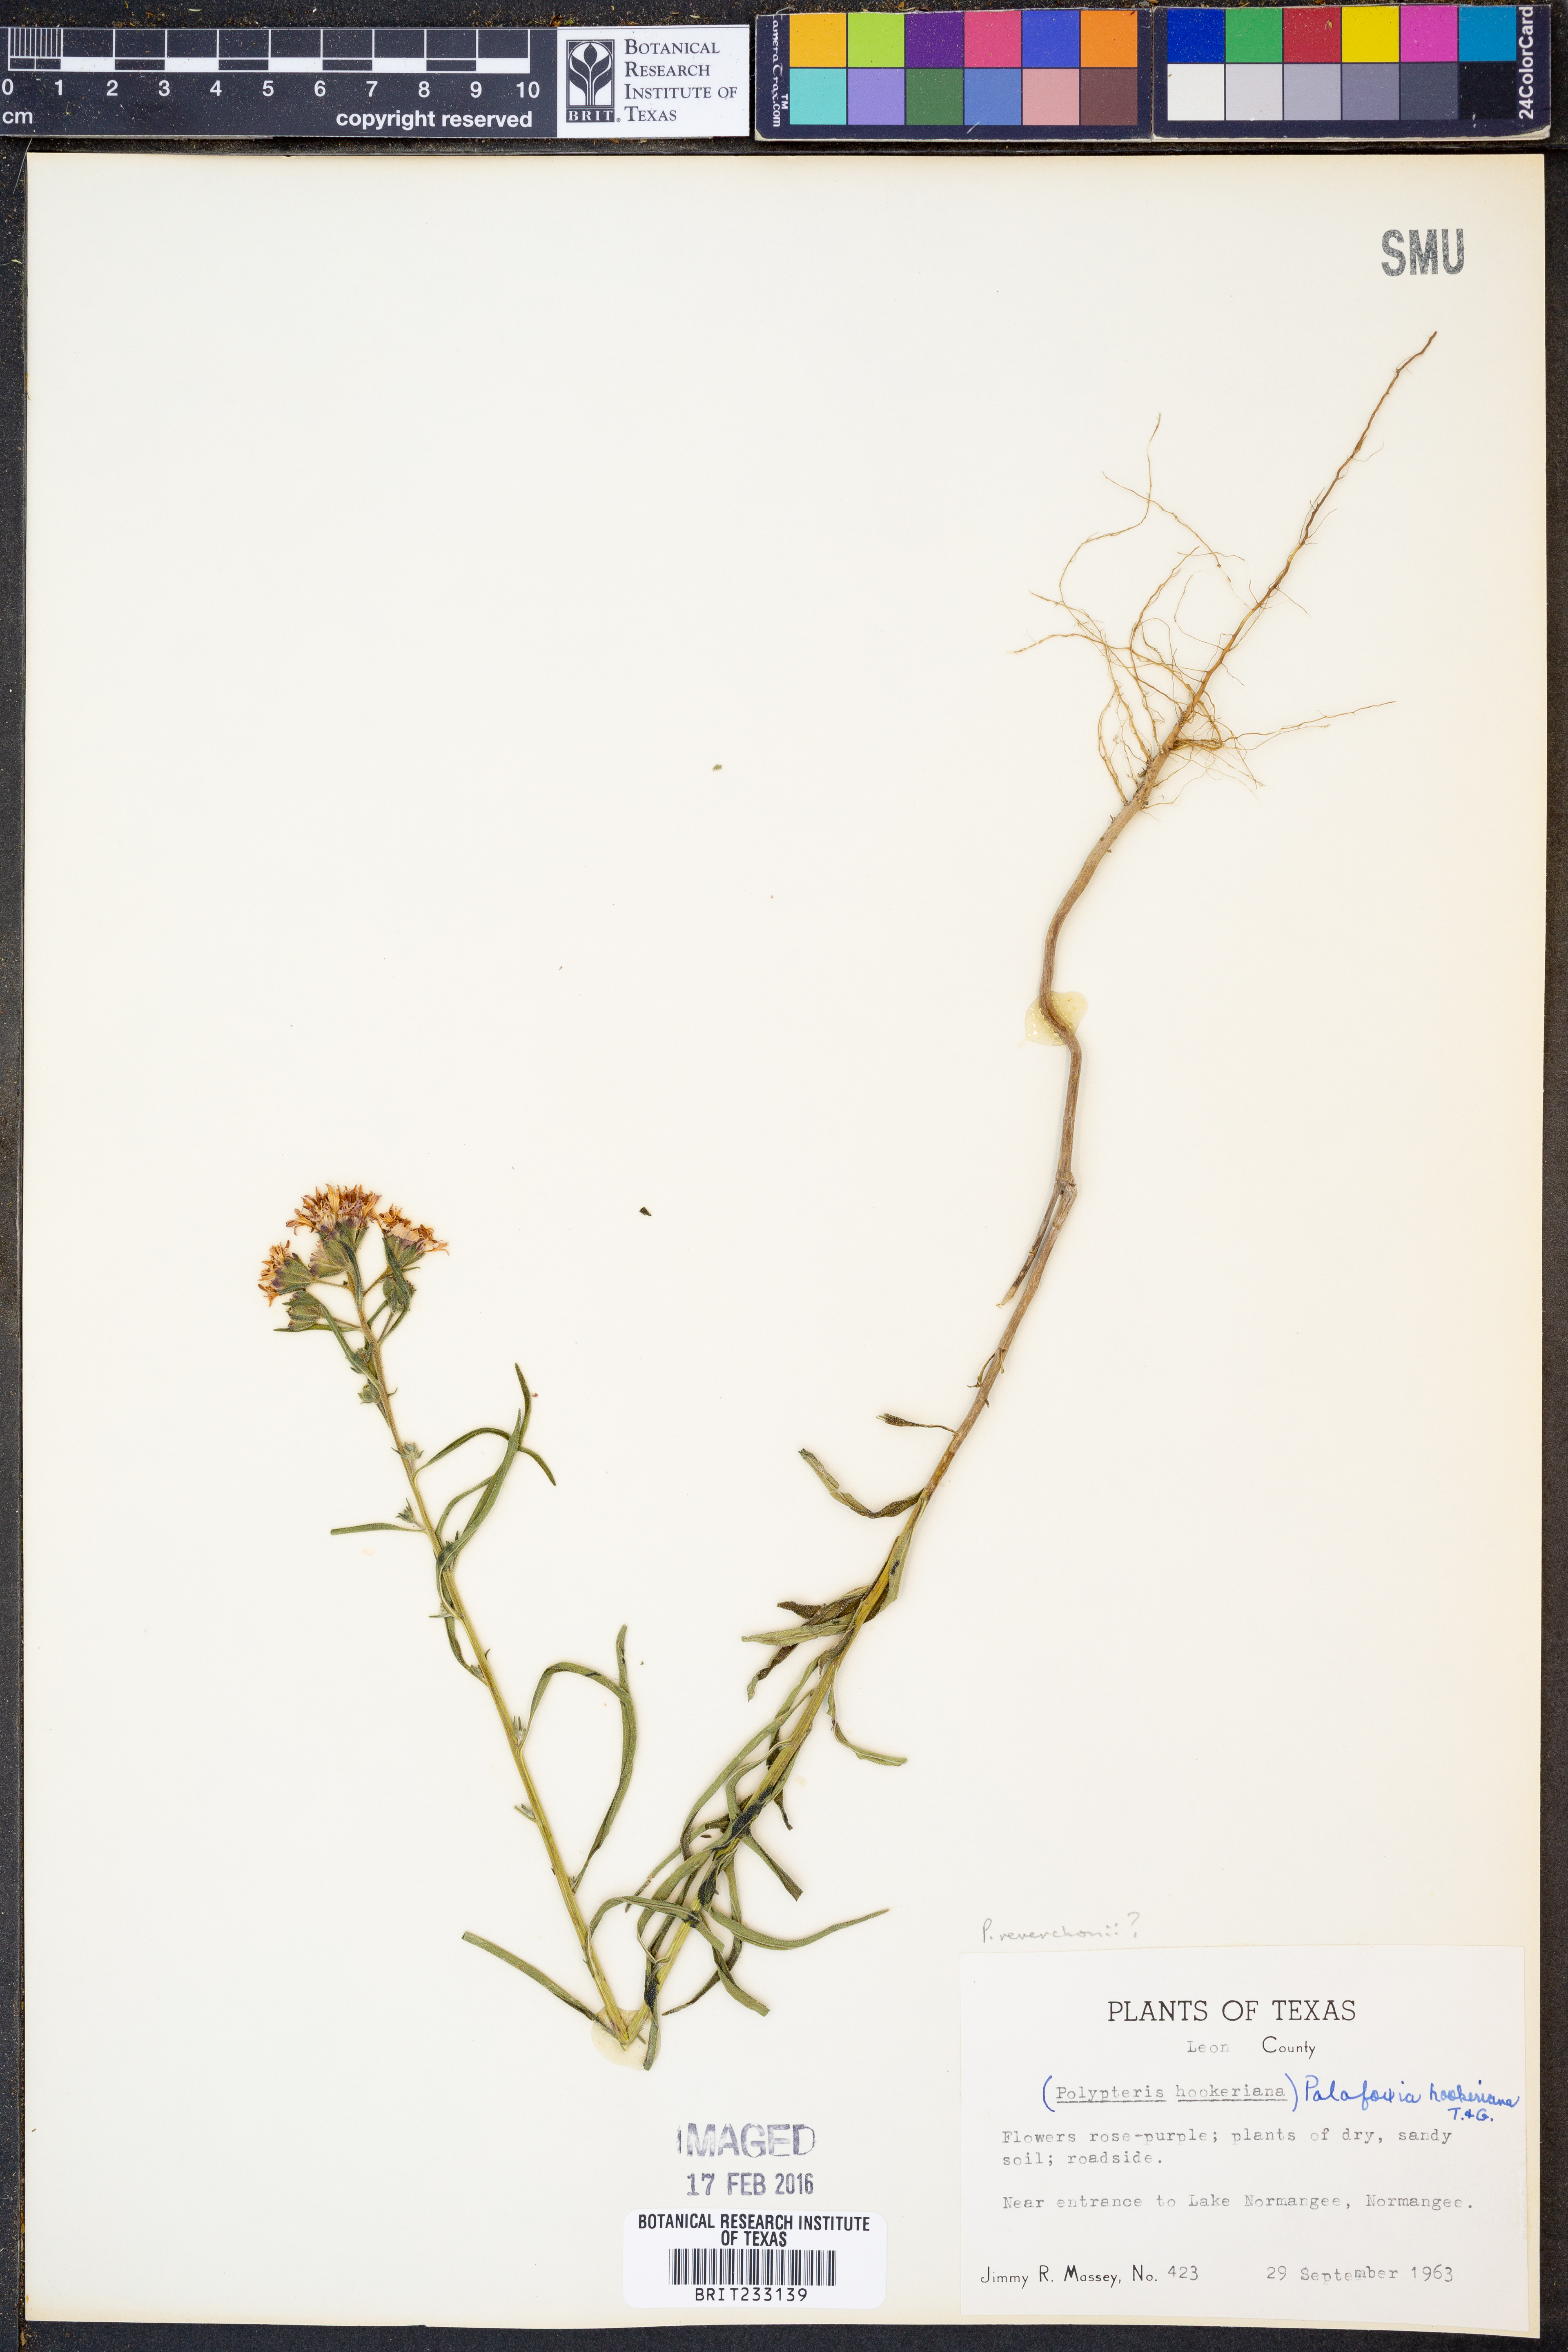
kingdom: Plantae
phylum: Tracheophyta
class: Magnoliopsida
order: Asterales
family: Asteraceae
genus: Palafoxia
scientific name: Palafoxia reverchonii
